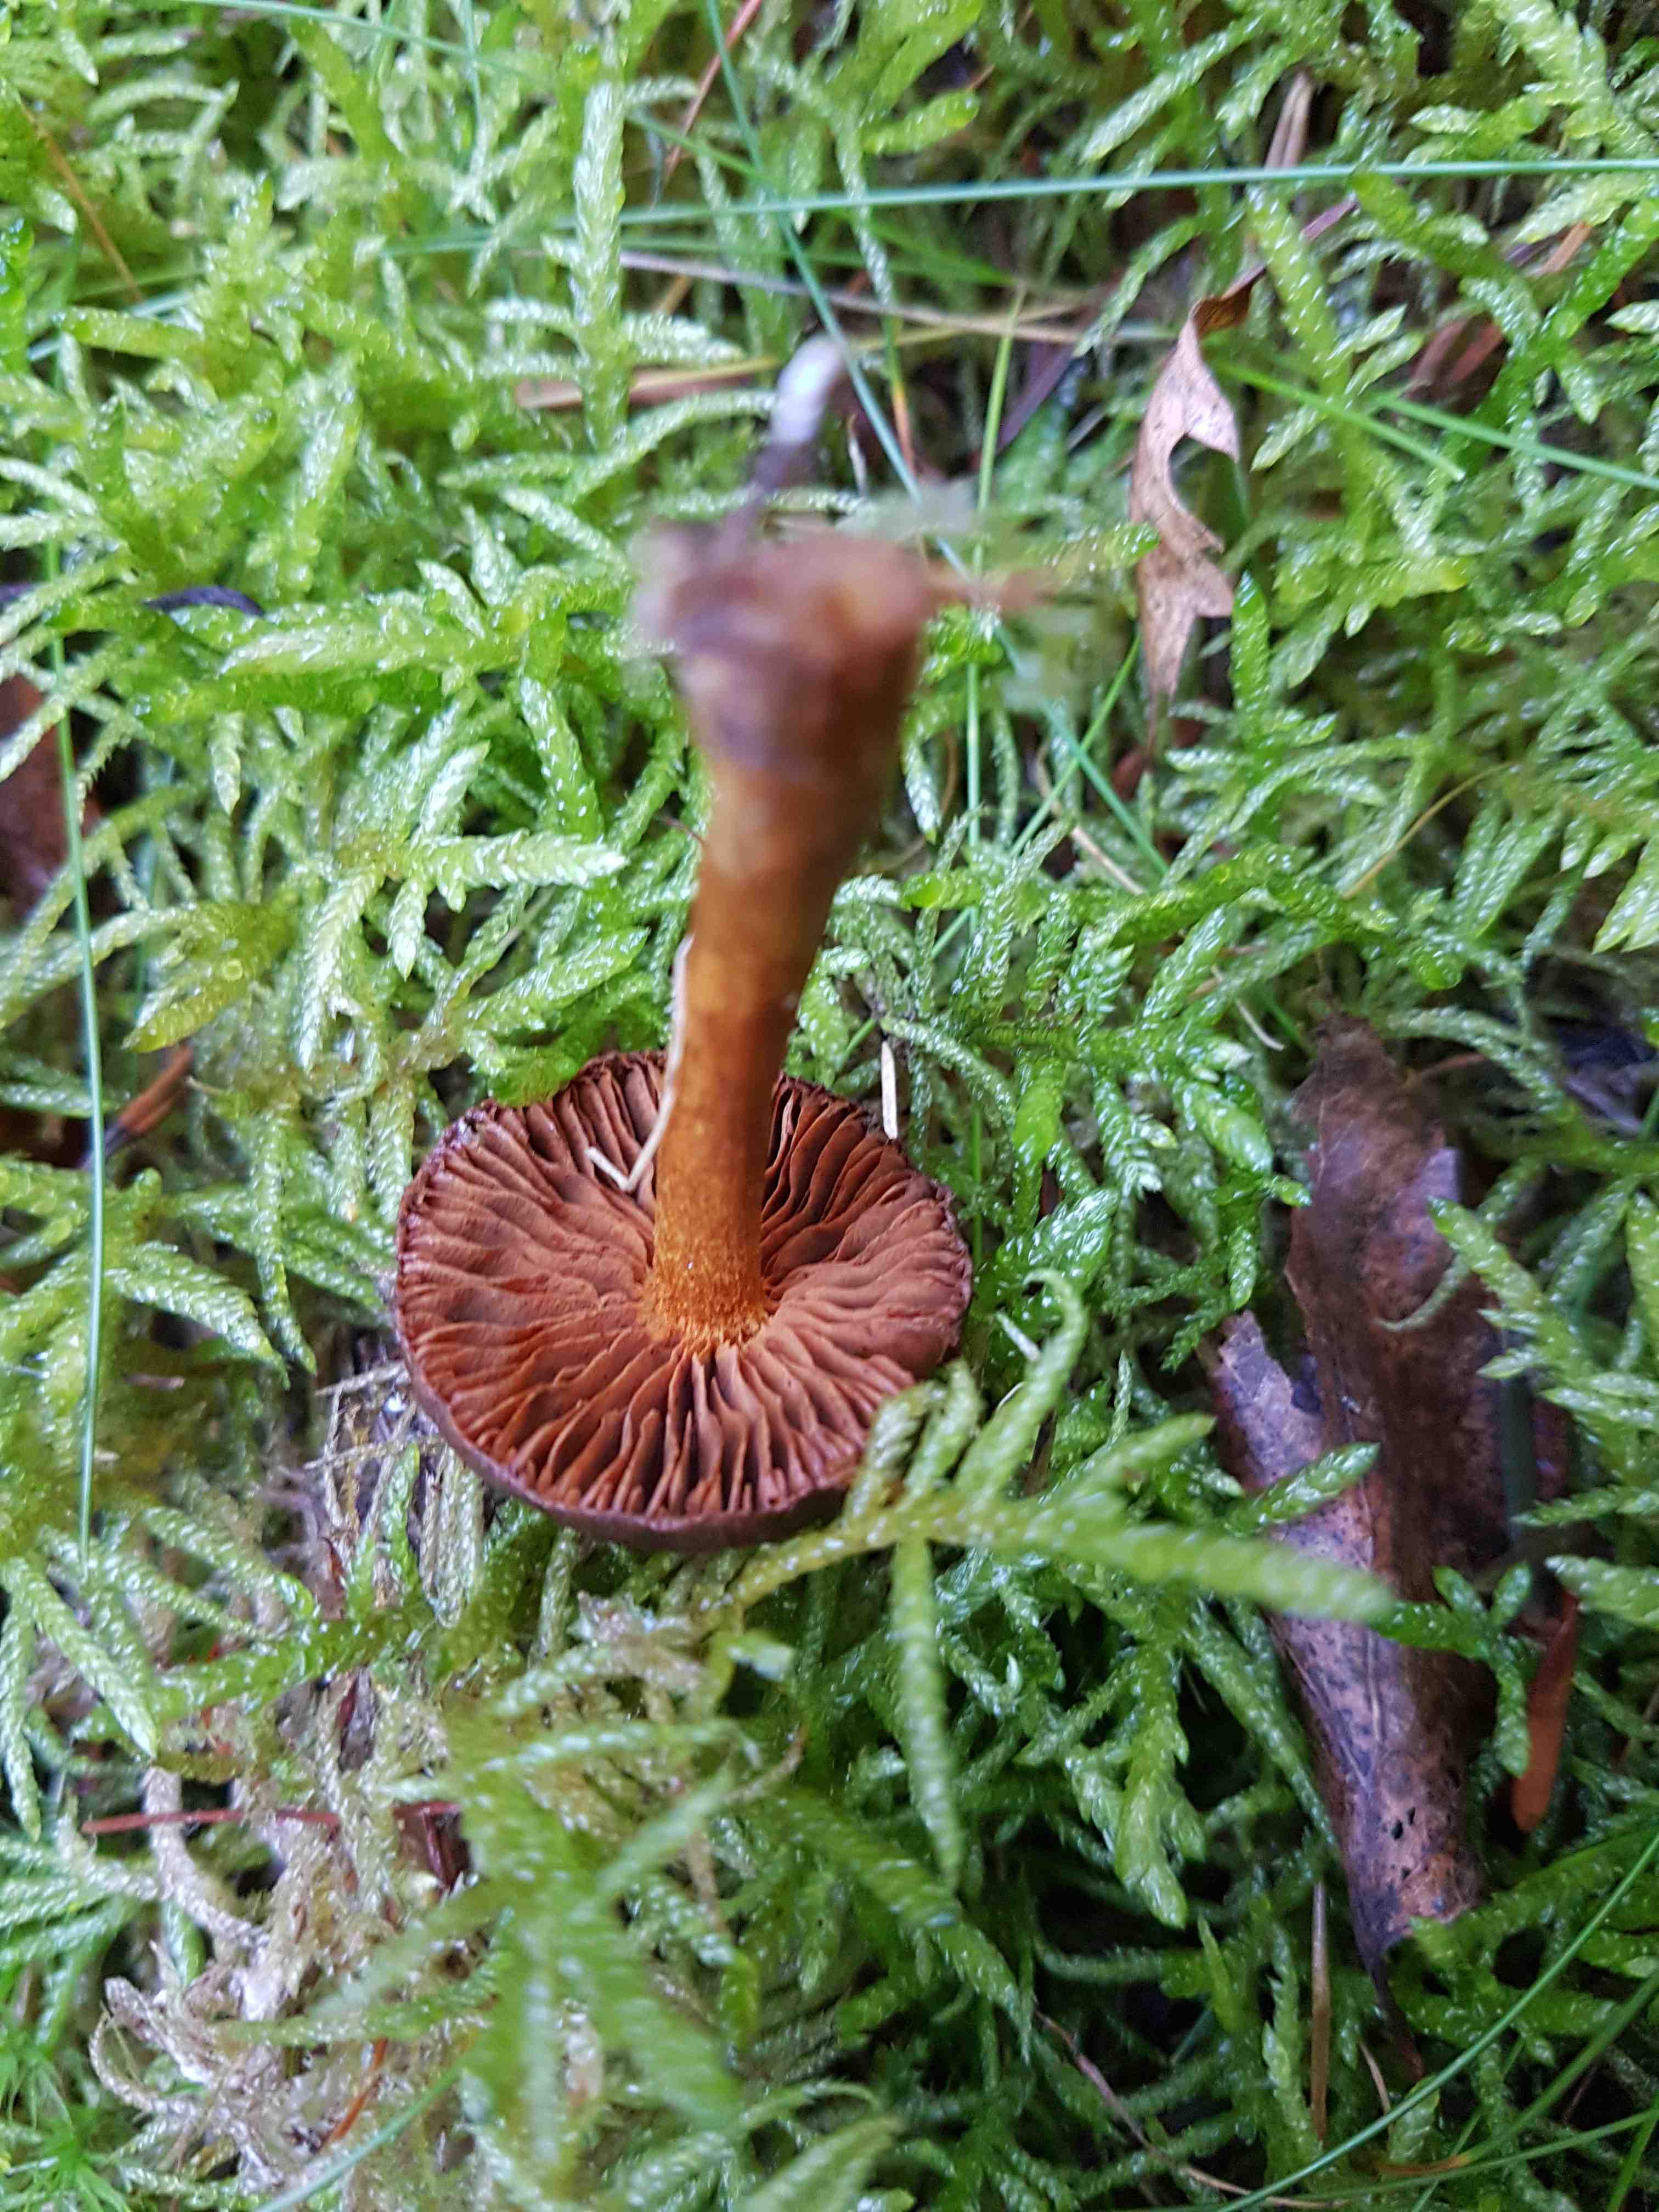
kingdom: Fungi
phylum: Basidiomycota
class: Agaricomycetes
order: Agaricales
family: Cortinariaceae
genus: Cortinarius
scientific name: Cortinarius
